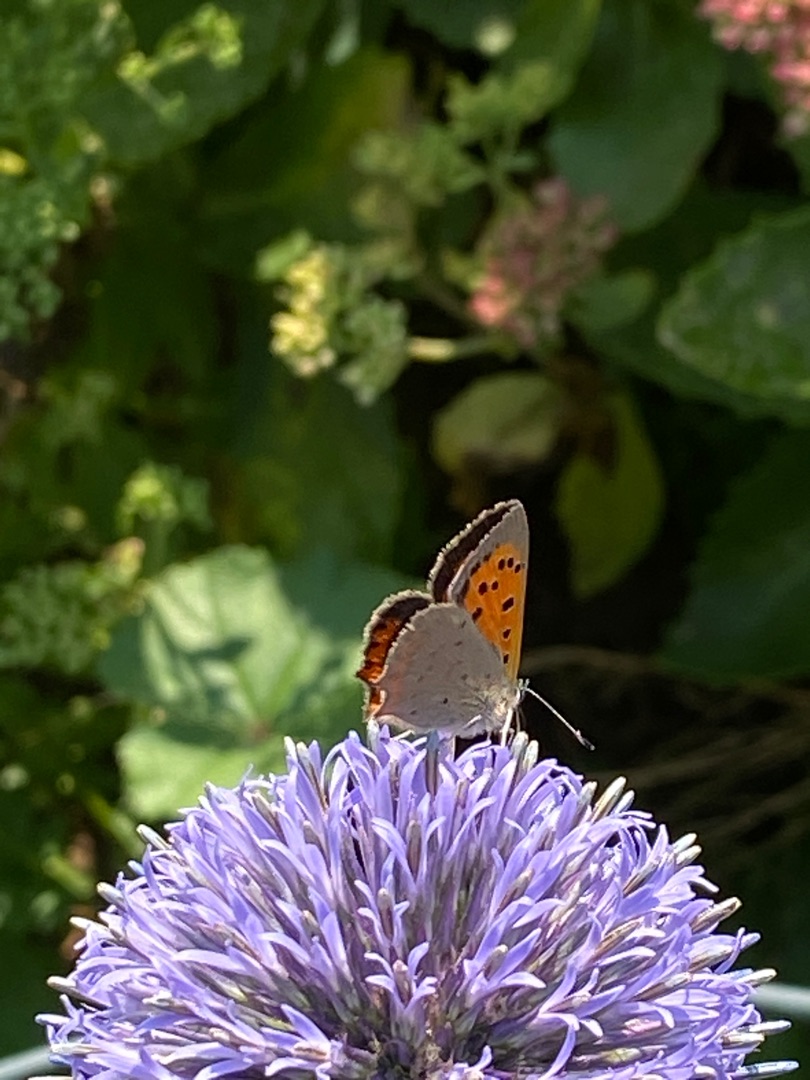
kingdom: Animalia
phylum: Arthropoda
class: Insecta
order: Lepidoptera
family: Lycaenidae
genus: Lycaena
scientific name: Lycaena phlaeas
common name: Lille ildfugl
